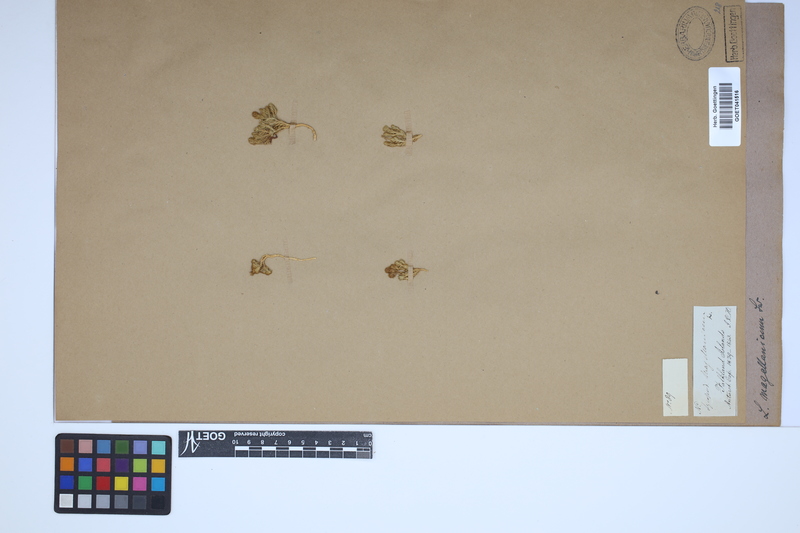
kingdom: Plantae
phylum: Tracheophyta
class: Lycopodiopsida
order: Lycopodiales
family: Lycopodiaceae
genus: Austrolycopodium
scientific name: Austrolycopodium magellanicum
